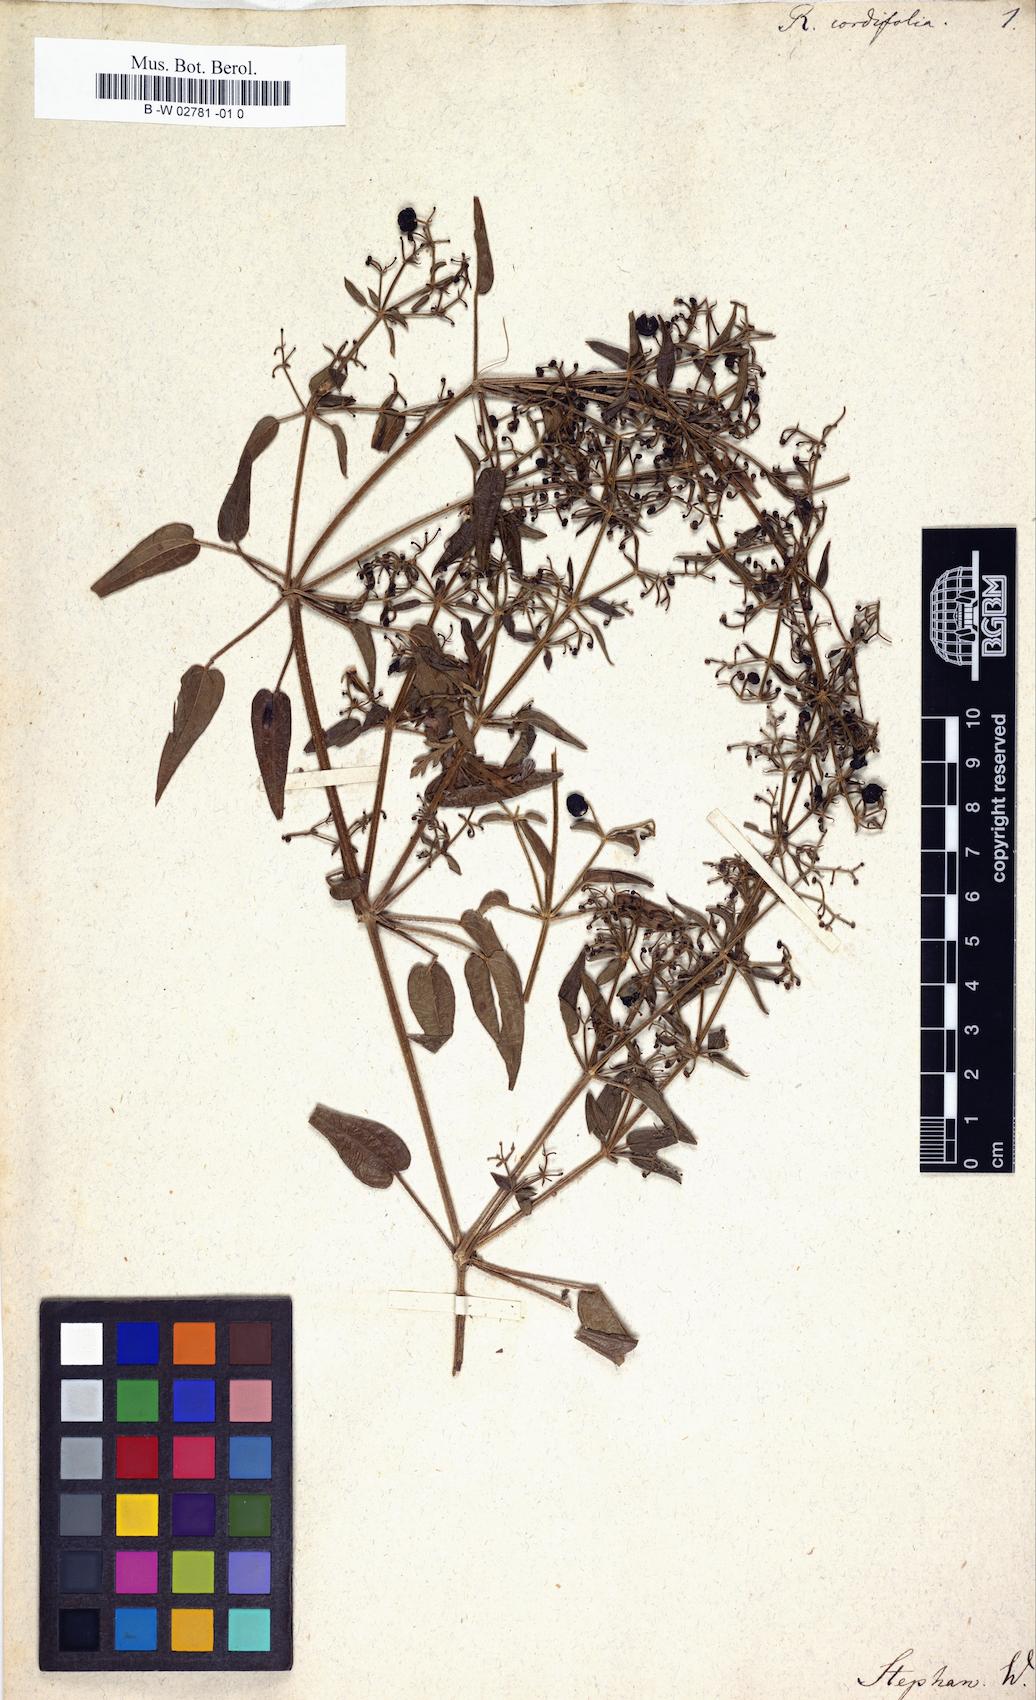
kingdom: Plantae
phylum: Tracheophyta
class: Magnoliopsida
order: Gentianales
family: Rubiaceae
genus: Rubia
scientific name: Rubia cordifolia
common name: Indian madder
